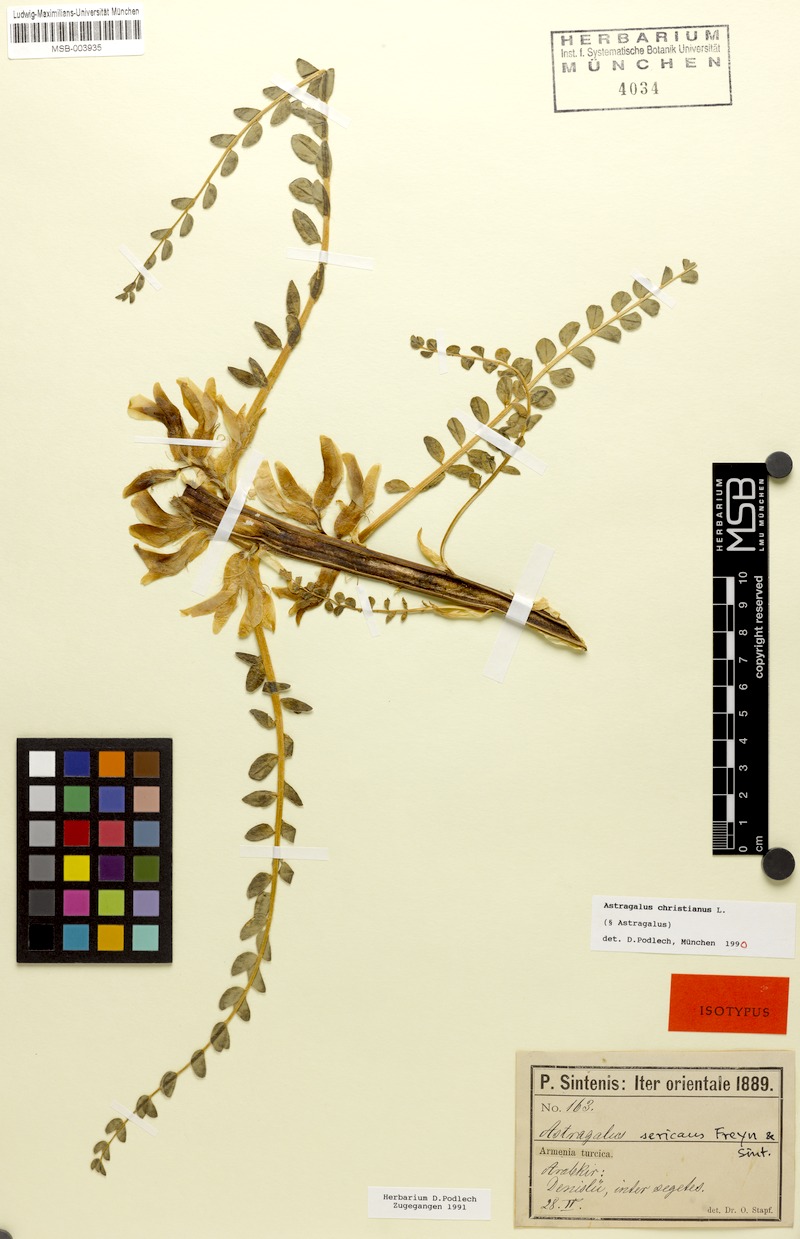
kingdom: Plantae
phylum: Tracheophyta
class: Magnoliopsida
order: Fabales
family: Fabaceae
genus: Astragalus
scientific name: Astragalus christianus
